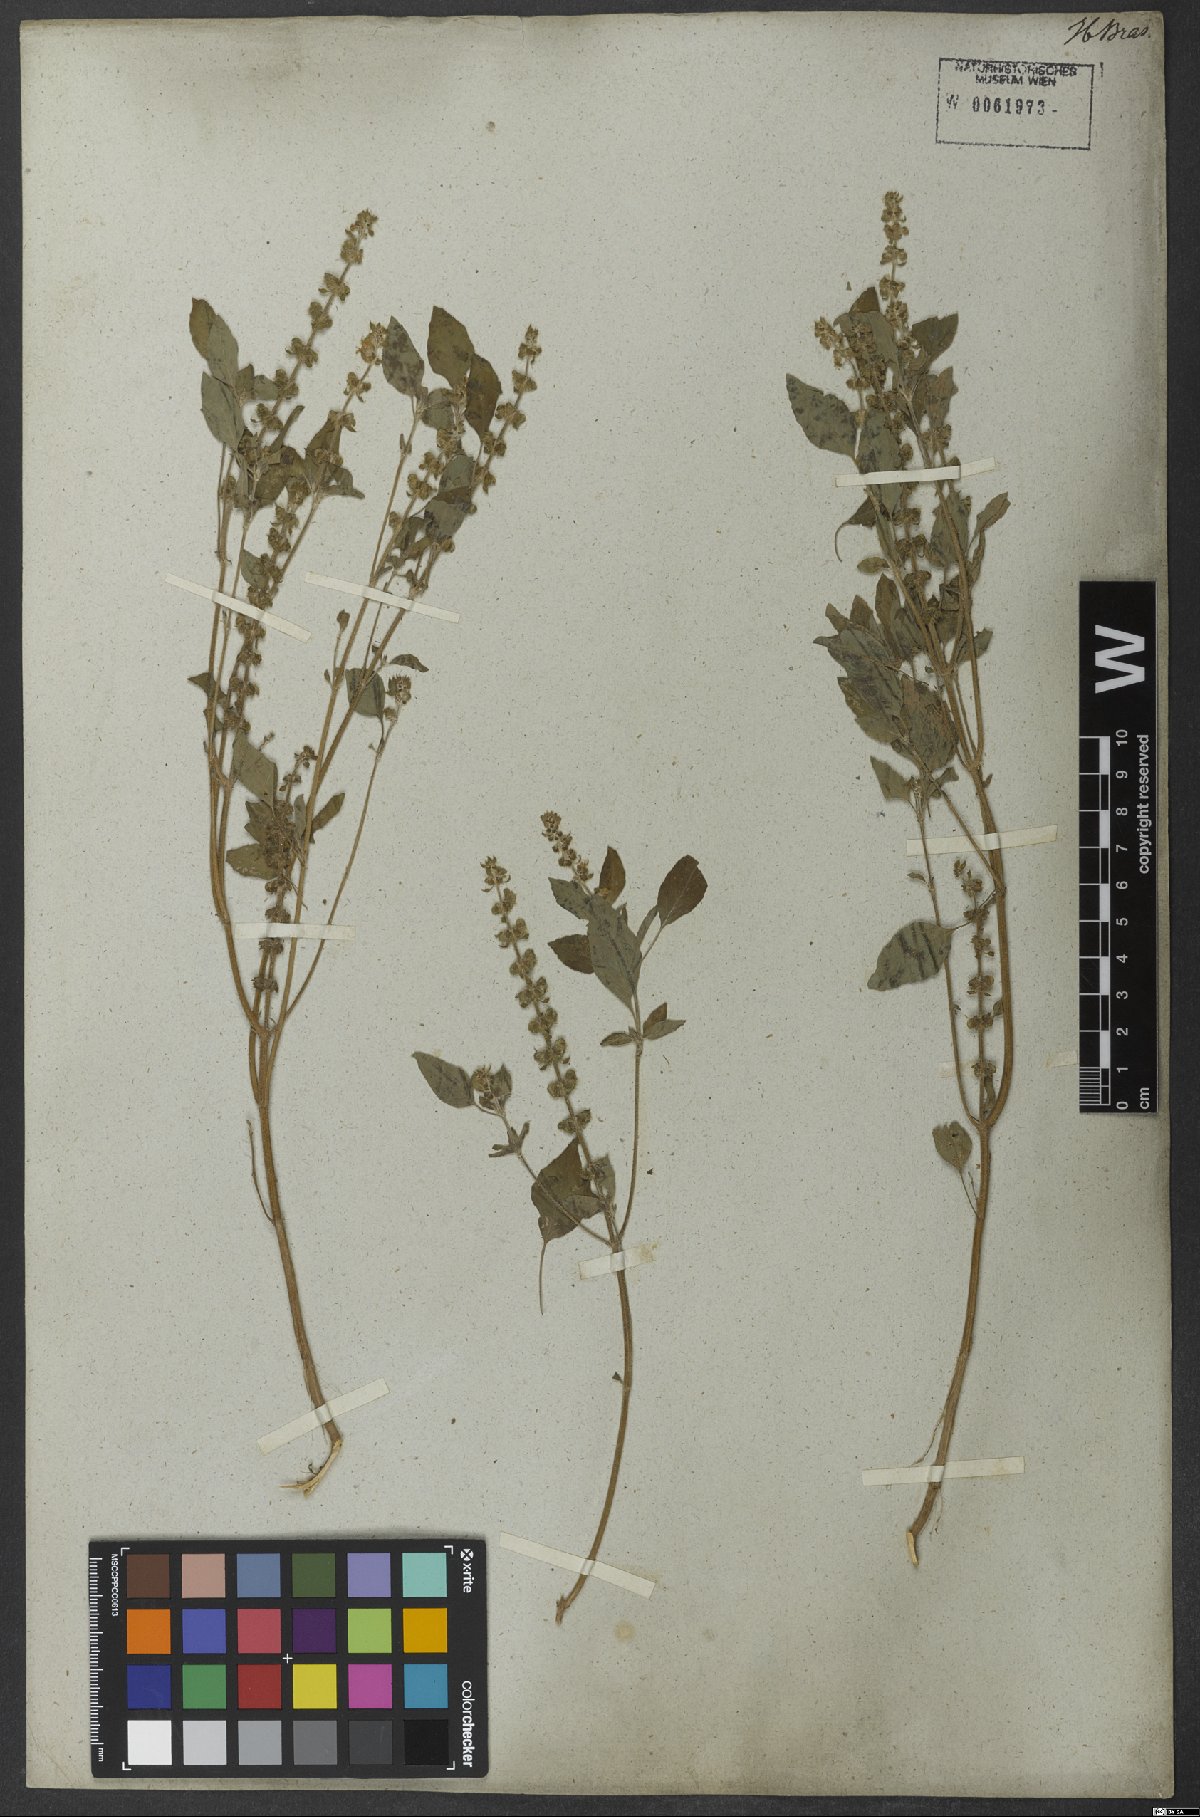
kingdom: Plantae
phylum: Tracheophyta
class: Magnoliopsida
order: Lamiales
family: Lamiaceae
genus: Ocimum
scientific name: Ocimum americanum
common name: American basil
